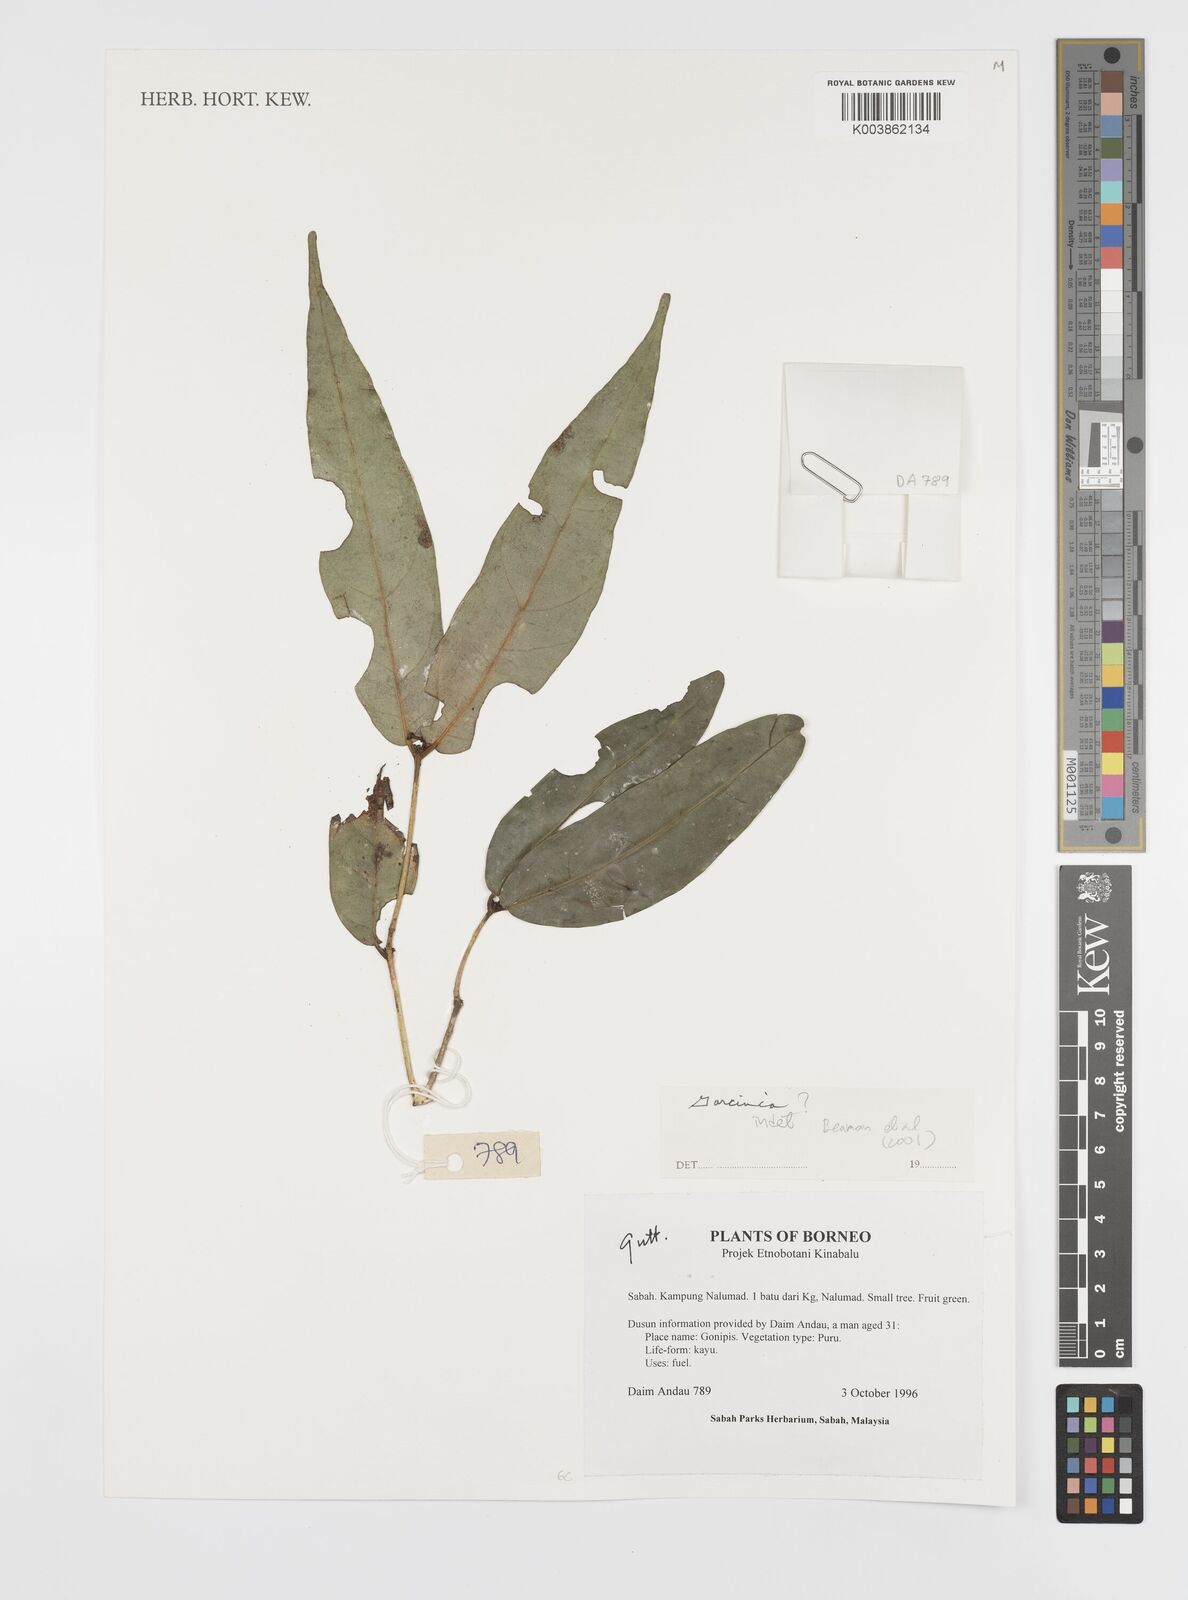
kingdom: Plantae
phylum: Tracheophyta
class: Magnoliopsida
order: Malpighiales
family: Clusiaceae
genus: Garcinia
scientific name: Garcinia
